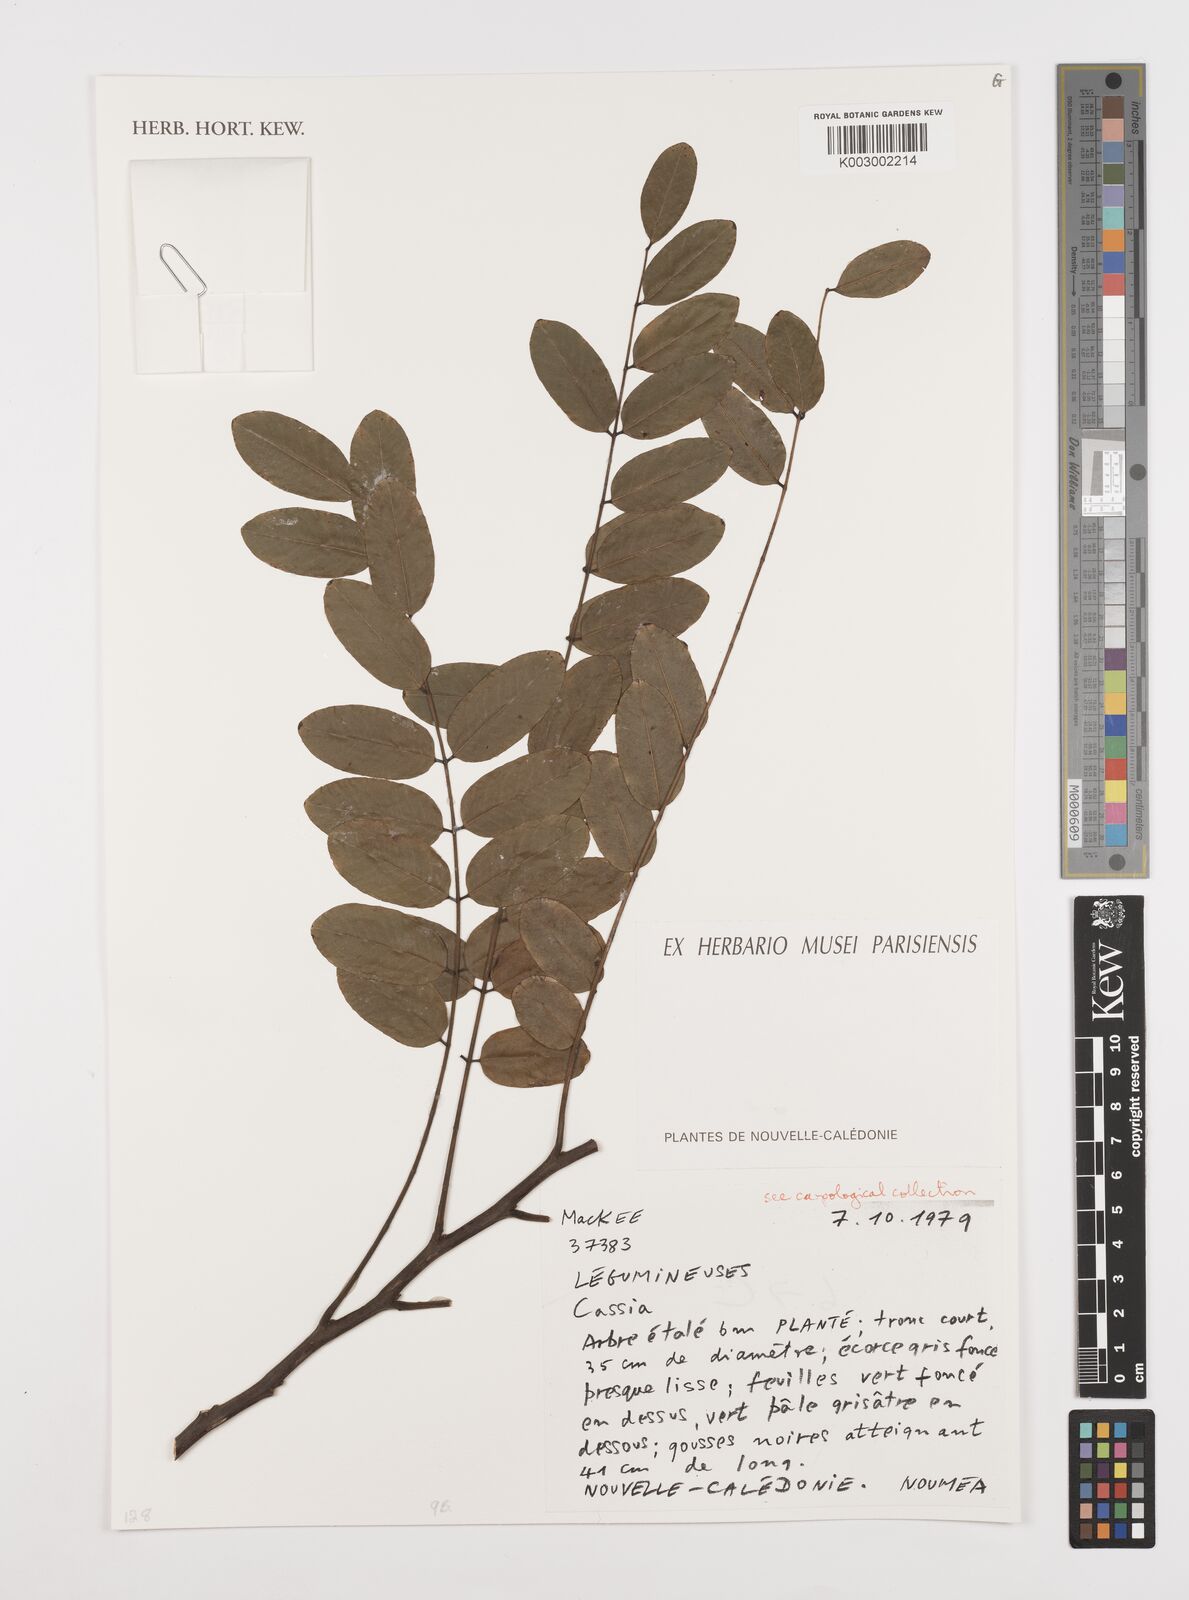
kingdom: Plantae
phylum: Tracheophyta
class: Magnoliopsida
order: Fabales
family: Fabaceae
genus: Cassia
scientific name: Cassia
